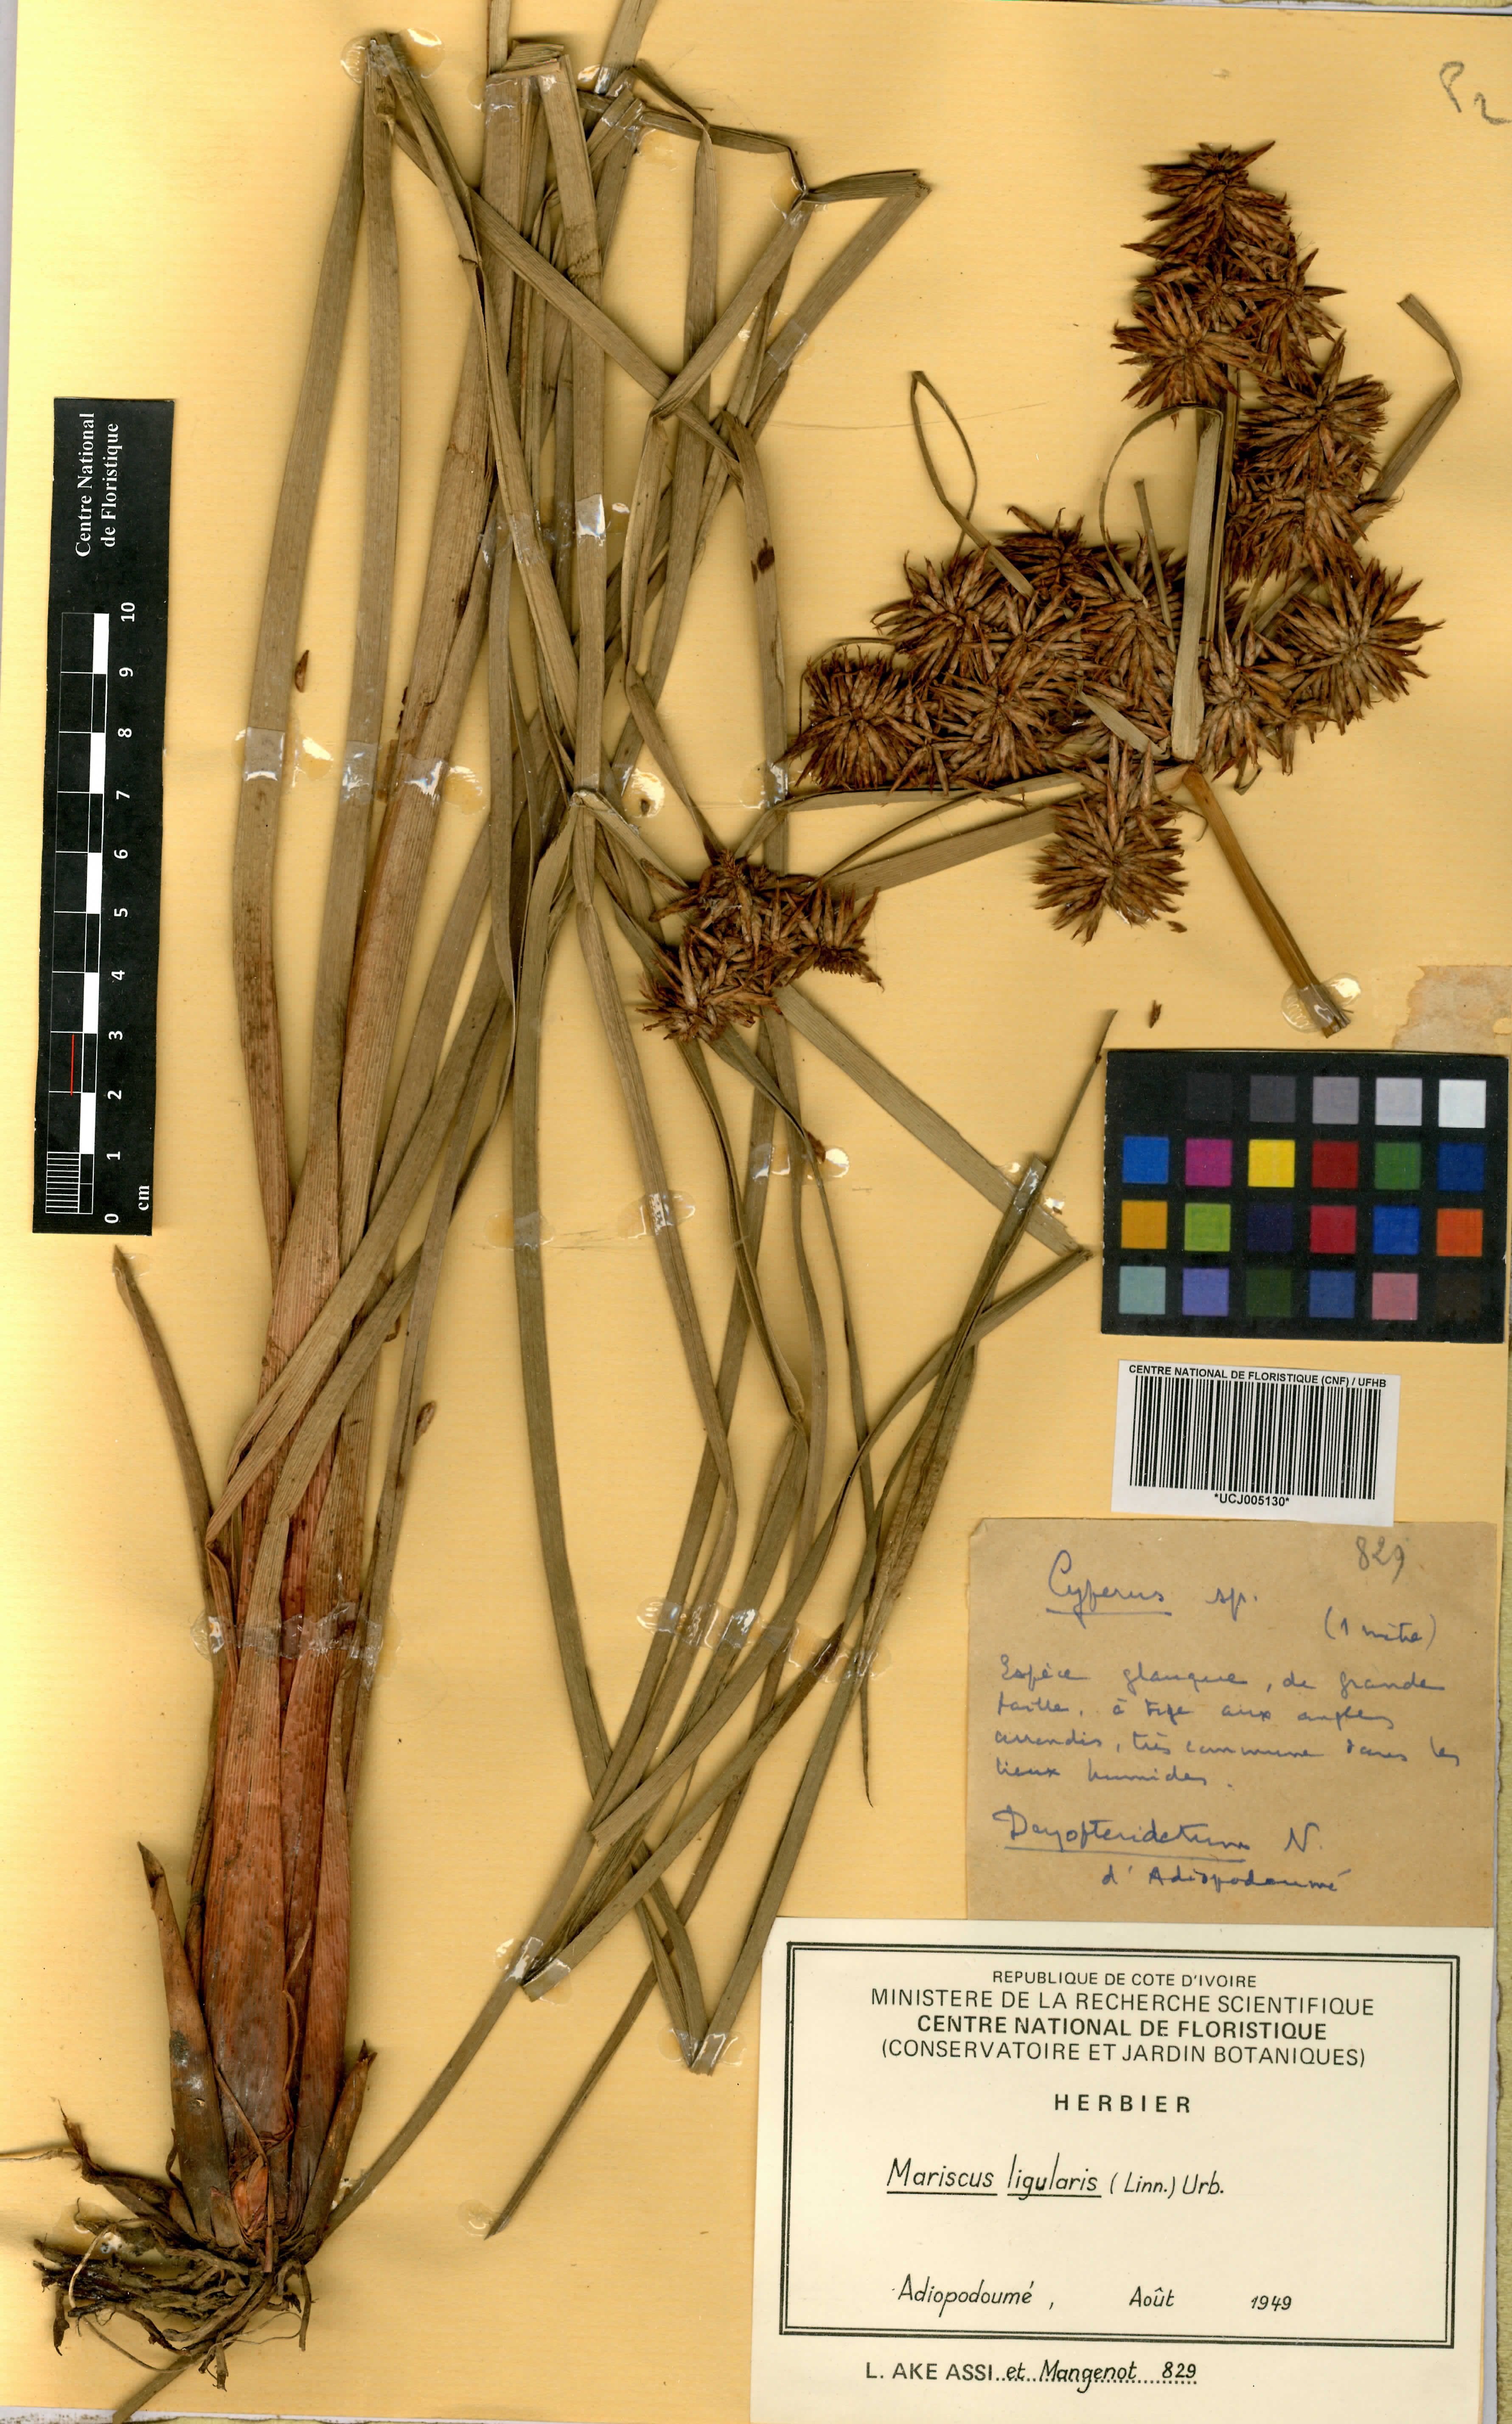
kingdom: Plantae
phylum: Tracheophyta
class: Liliopsida
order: Poales
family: Cyperaceae
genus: Cyperus
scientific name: Cyperus ligularis
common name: Swamp flat sedge
